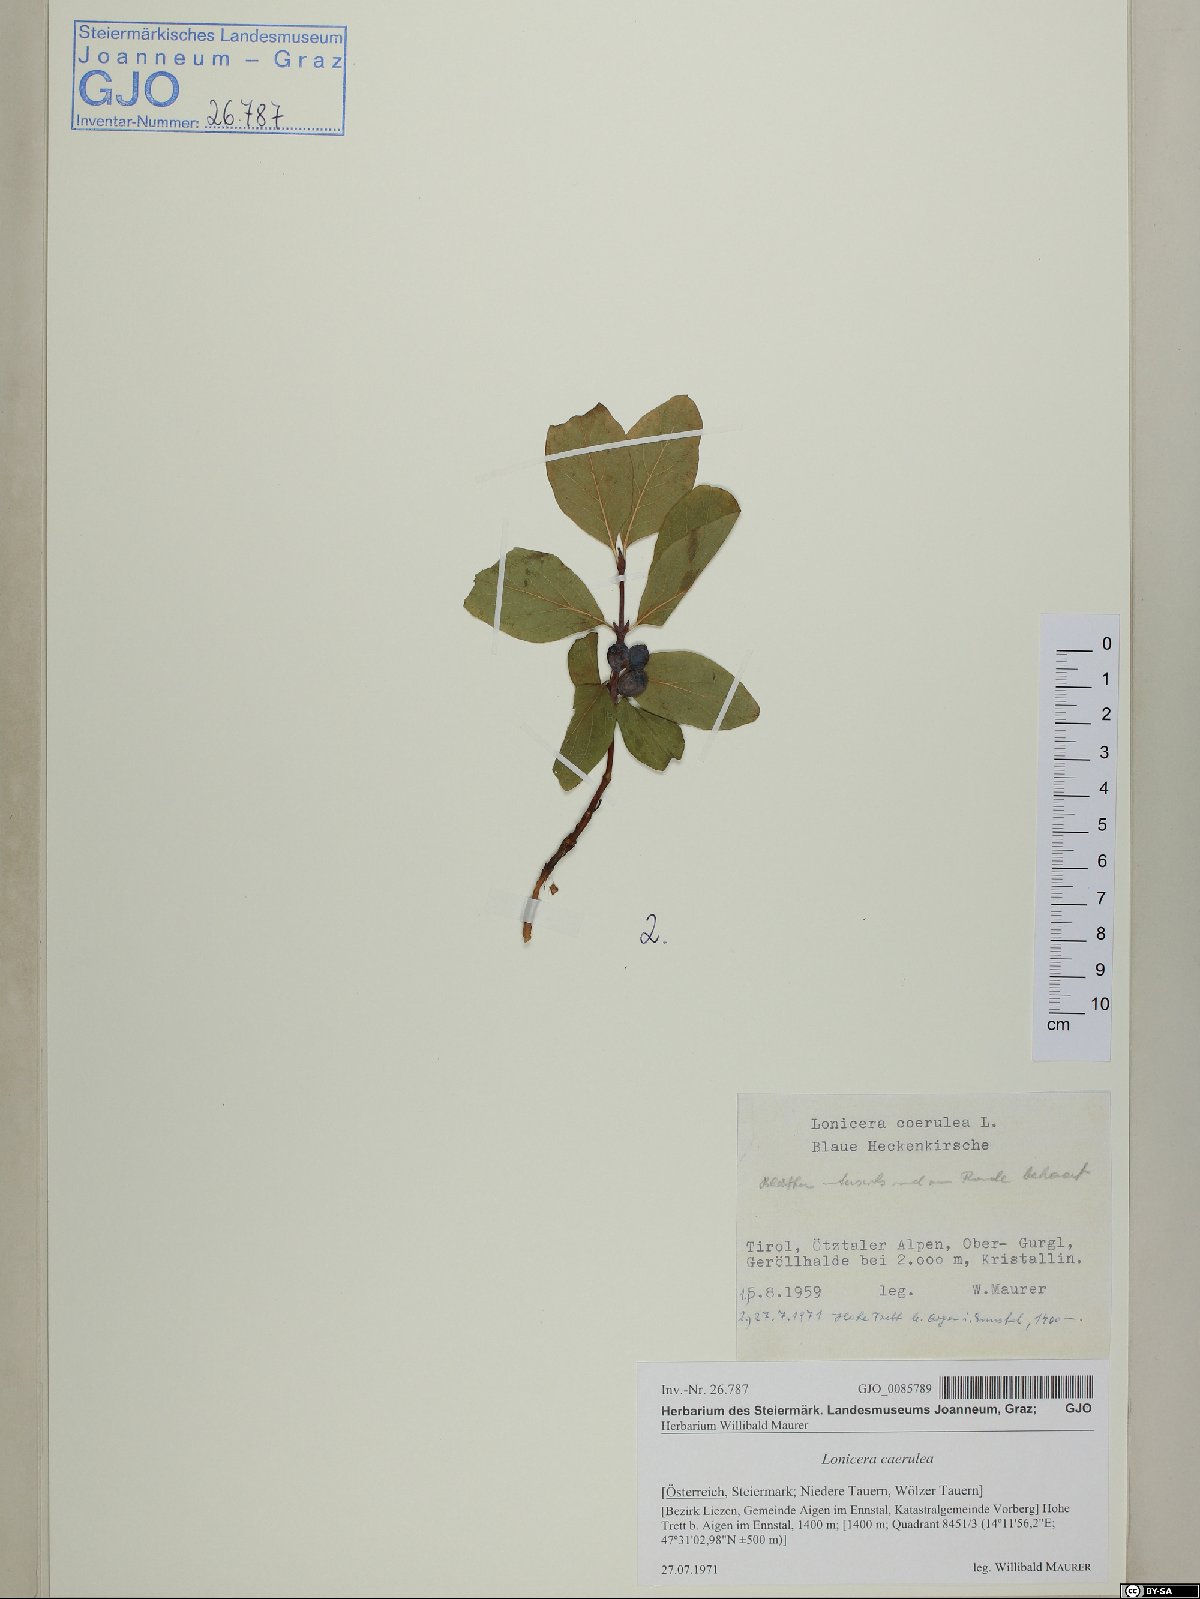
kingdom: Plantae
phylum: Tracheophyta
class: Magnoliopsida
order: Dipsacales
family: Caprifoliaceae
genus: Lonicera
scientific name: Lonicera caerulea
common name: Blue honeysuckle
